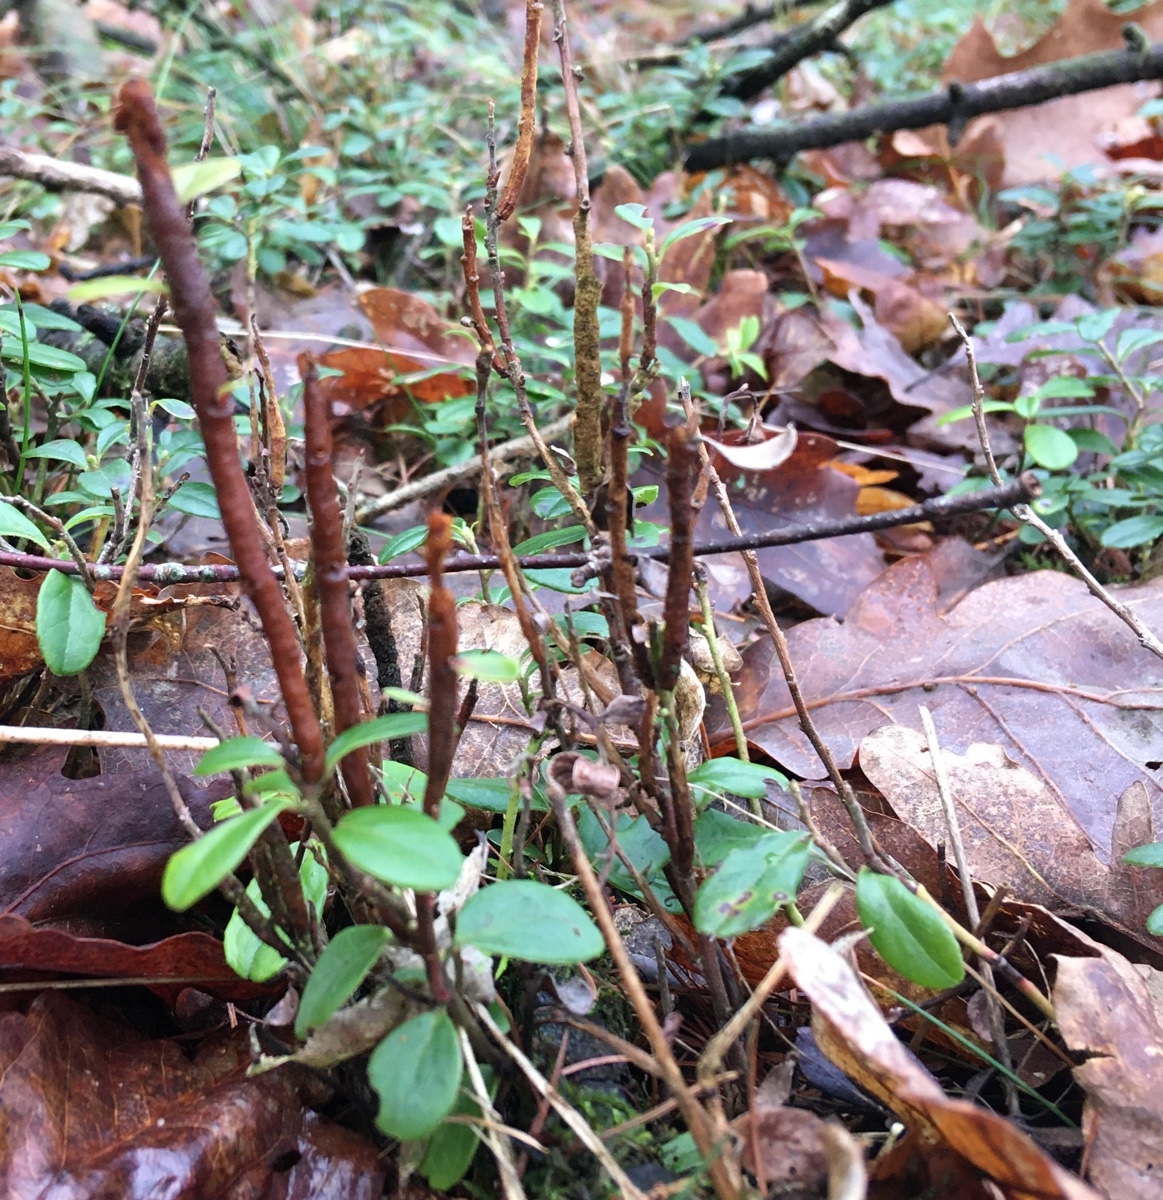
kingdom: Fungi
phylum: Basidiomycota
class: Pucciniomycetes
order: Pucciniales
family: Pucciniastraceae
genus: Calyptospora
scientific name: Calyptospora columnaris
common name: Huckleberry broom rust fungus
